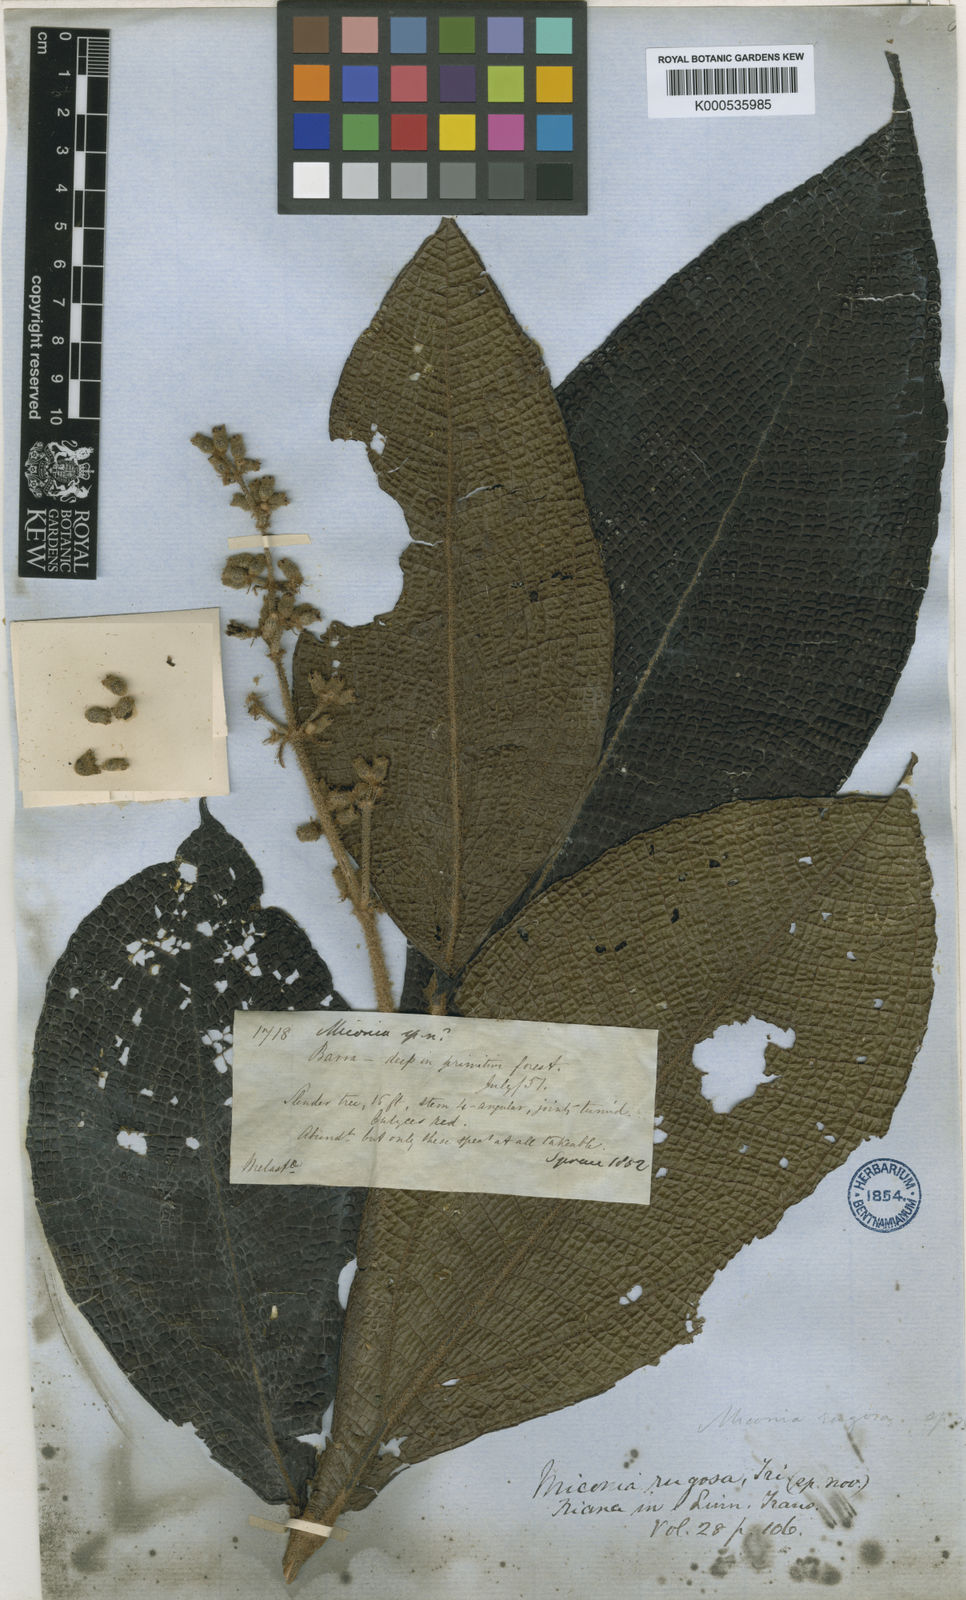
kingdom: Plantae
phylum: Tracheophyta
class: Magnoliopsida
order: Myrtales
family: Melastomataceae
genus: Miconia
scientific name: Miconia rugosa
